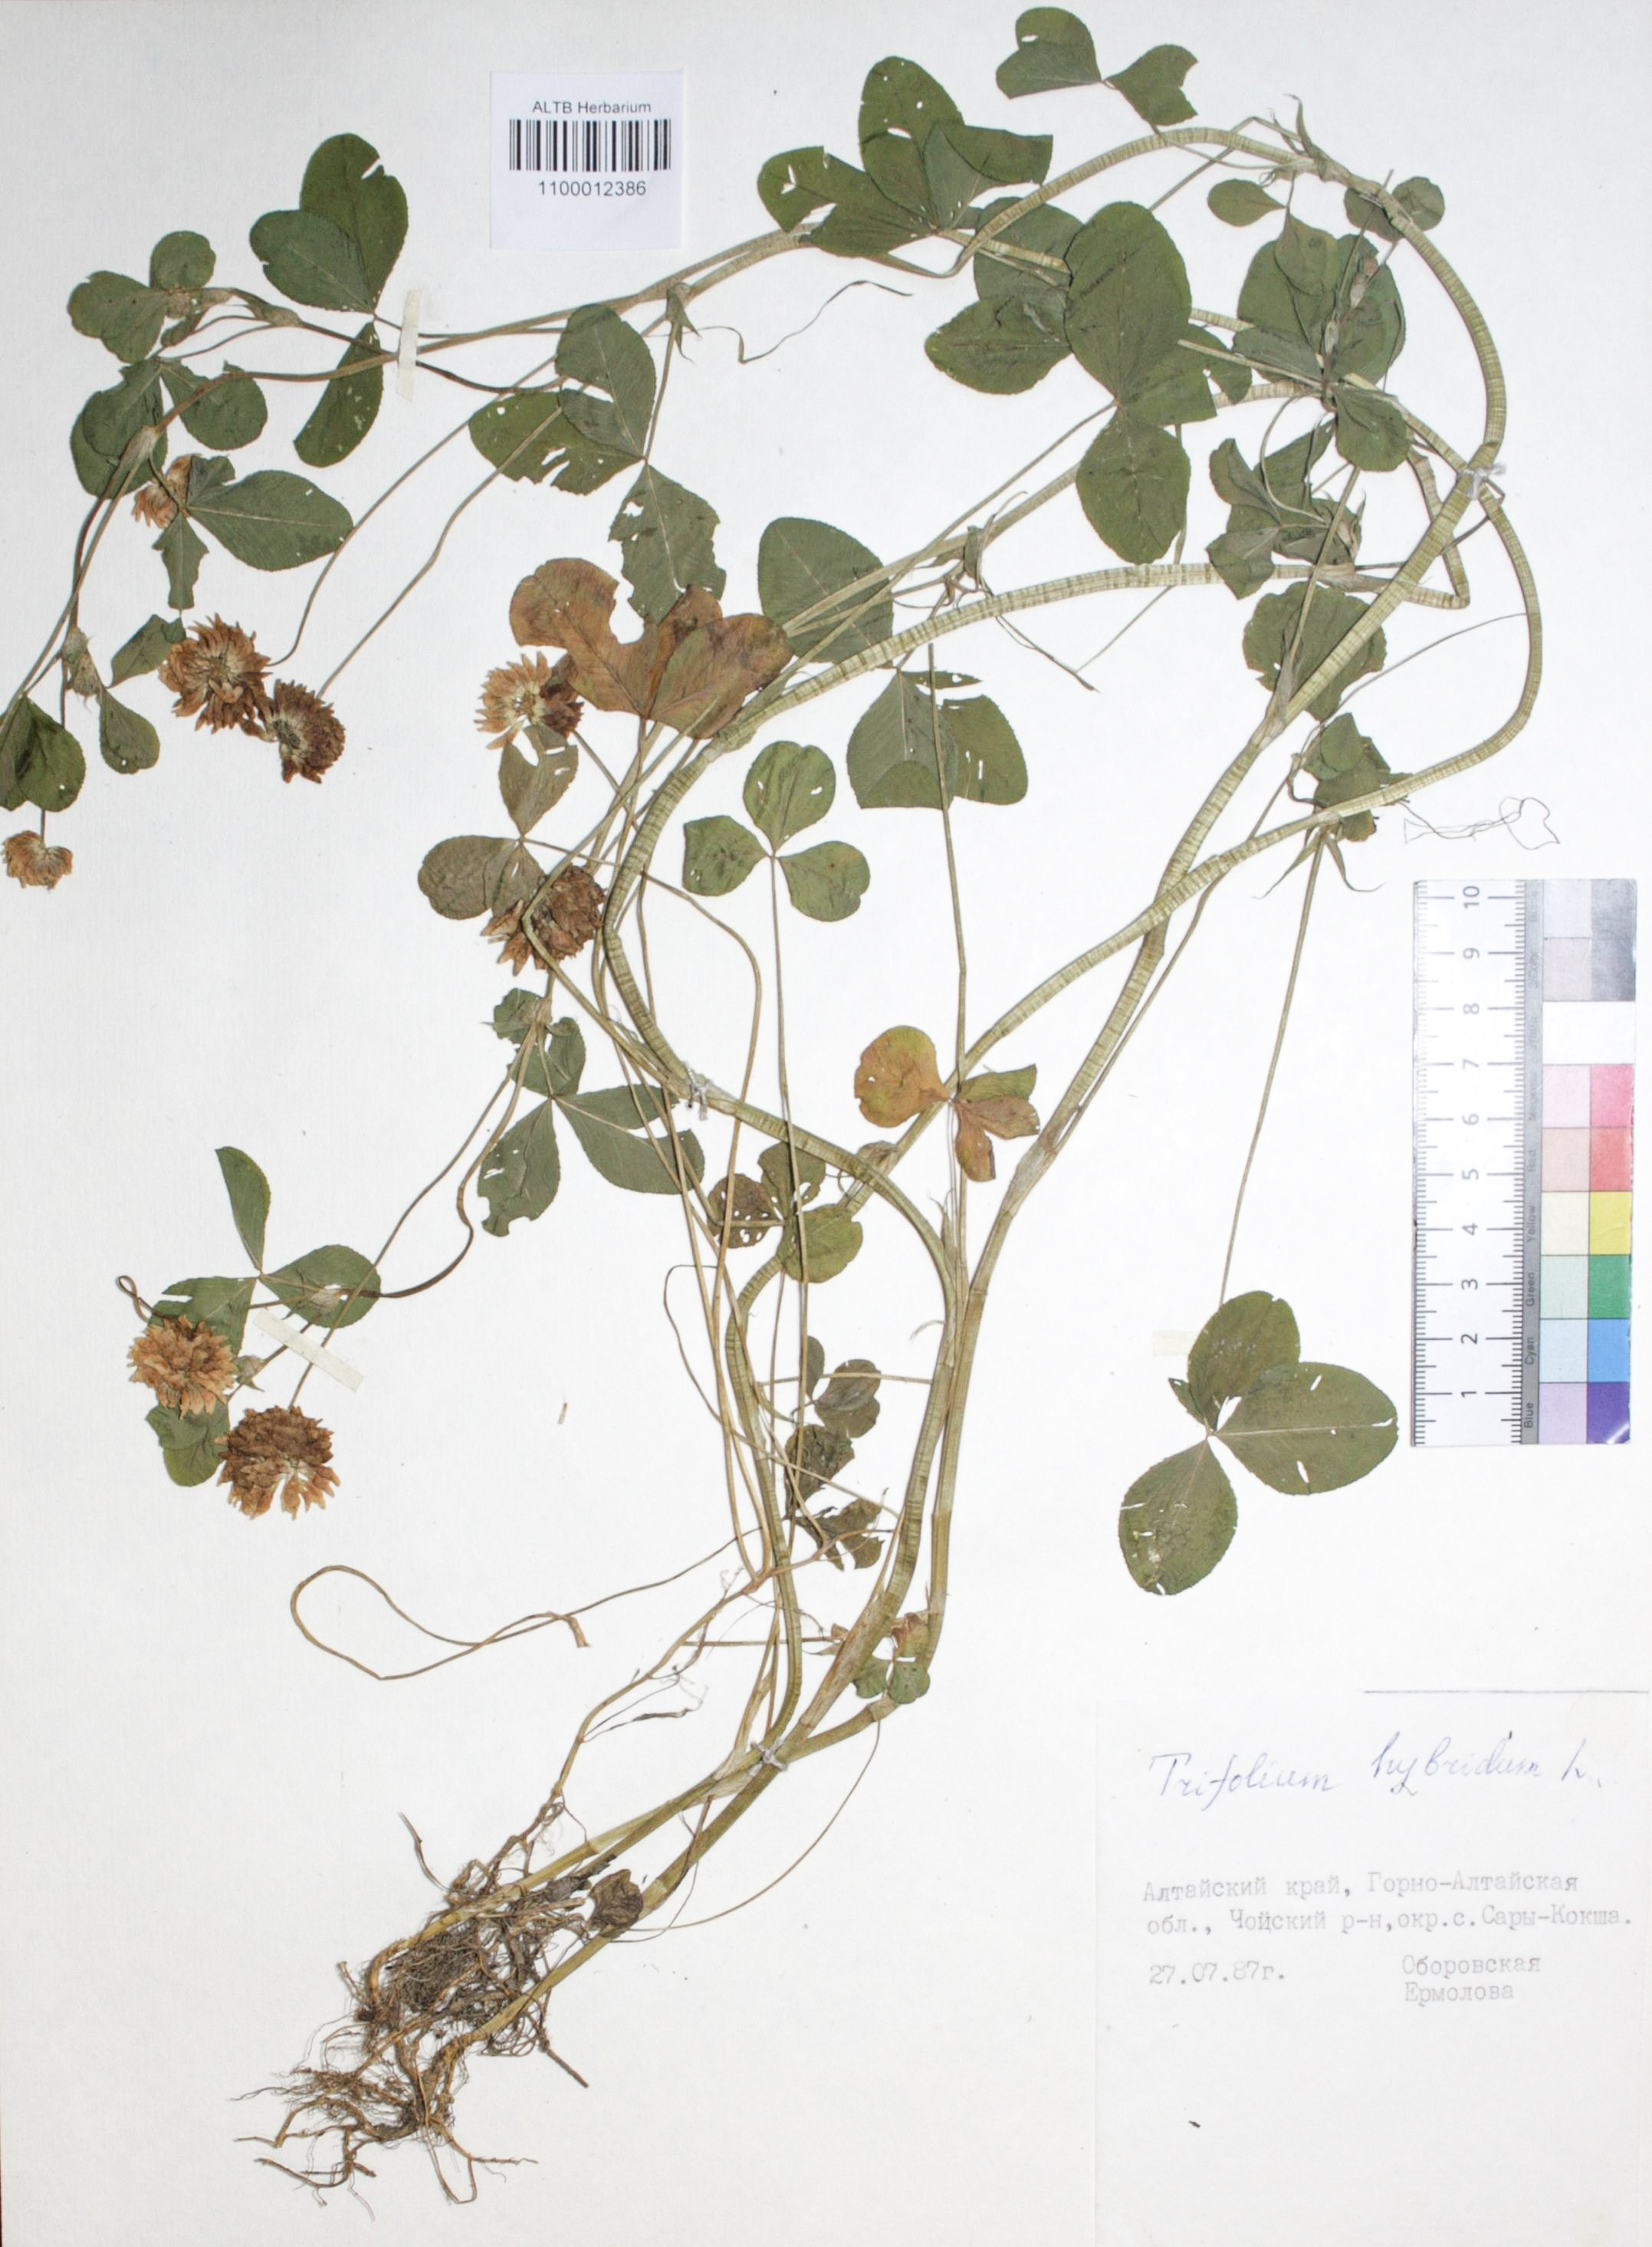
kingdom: Plantae
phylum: Tracheophyta
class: Magnoliopsida
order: Fabales
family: Fabaceae
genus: Trifolium
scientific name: Trifolium hybridum
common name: Alsike clover
